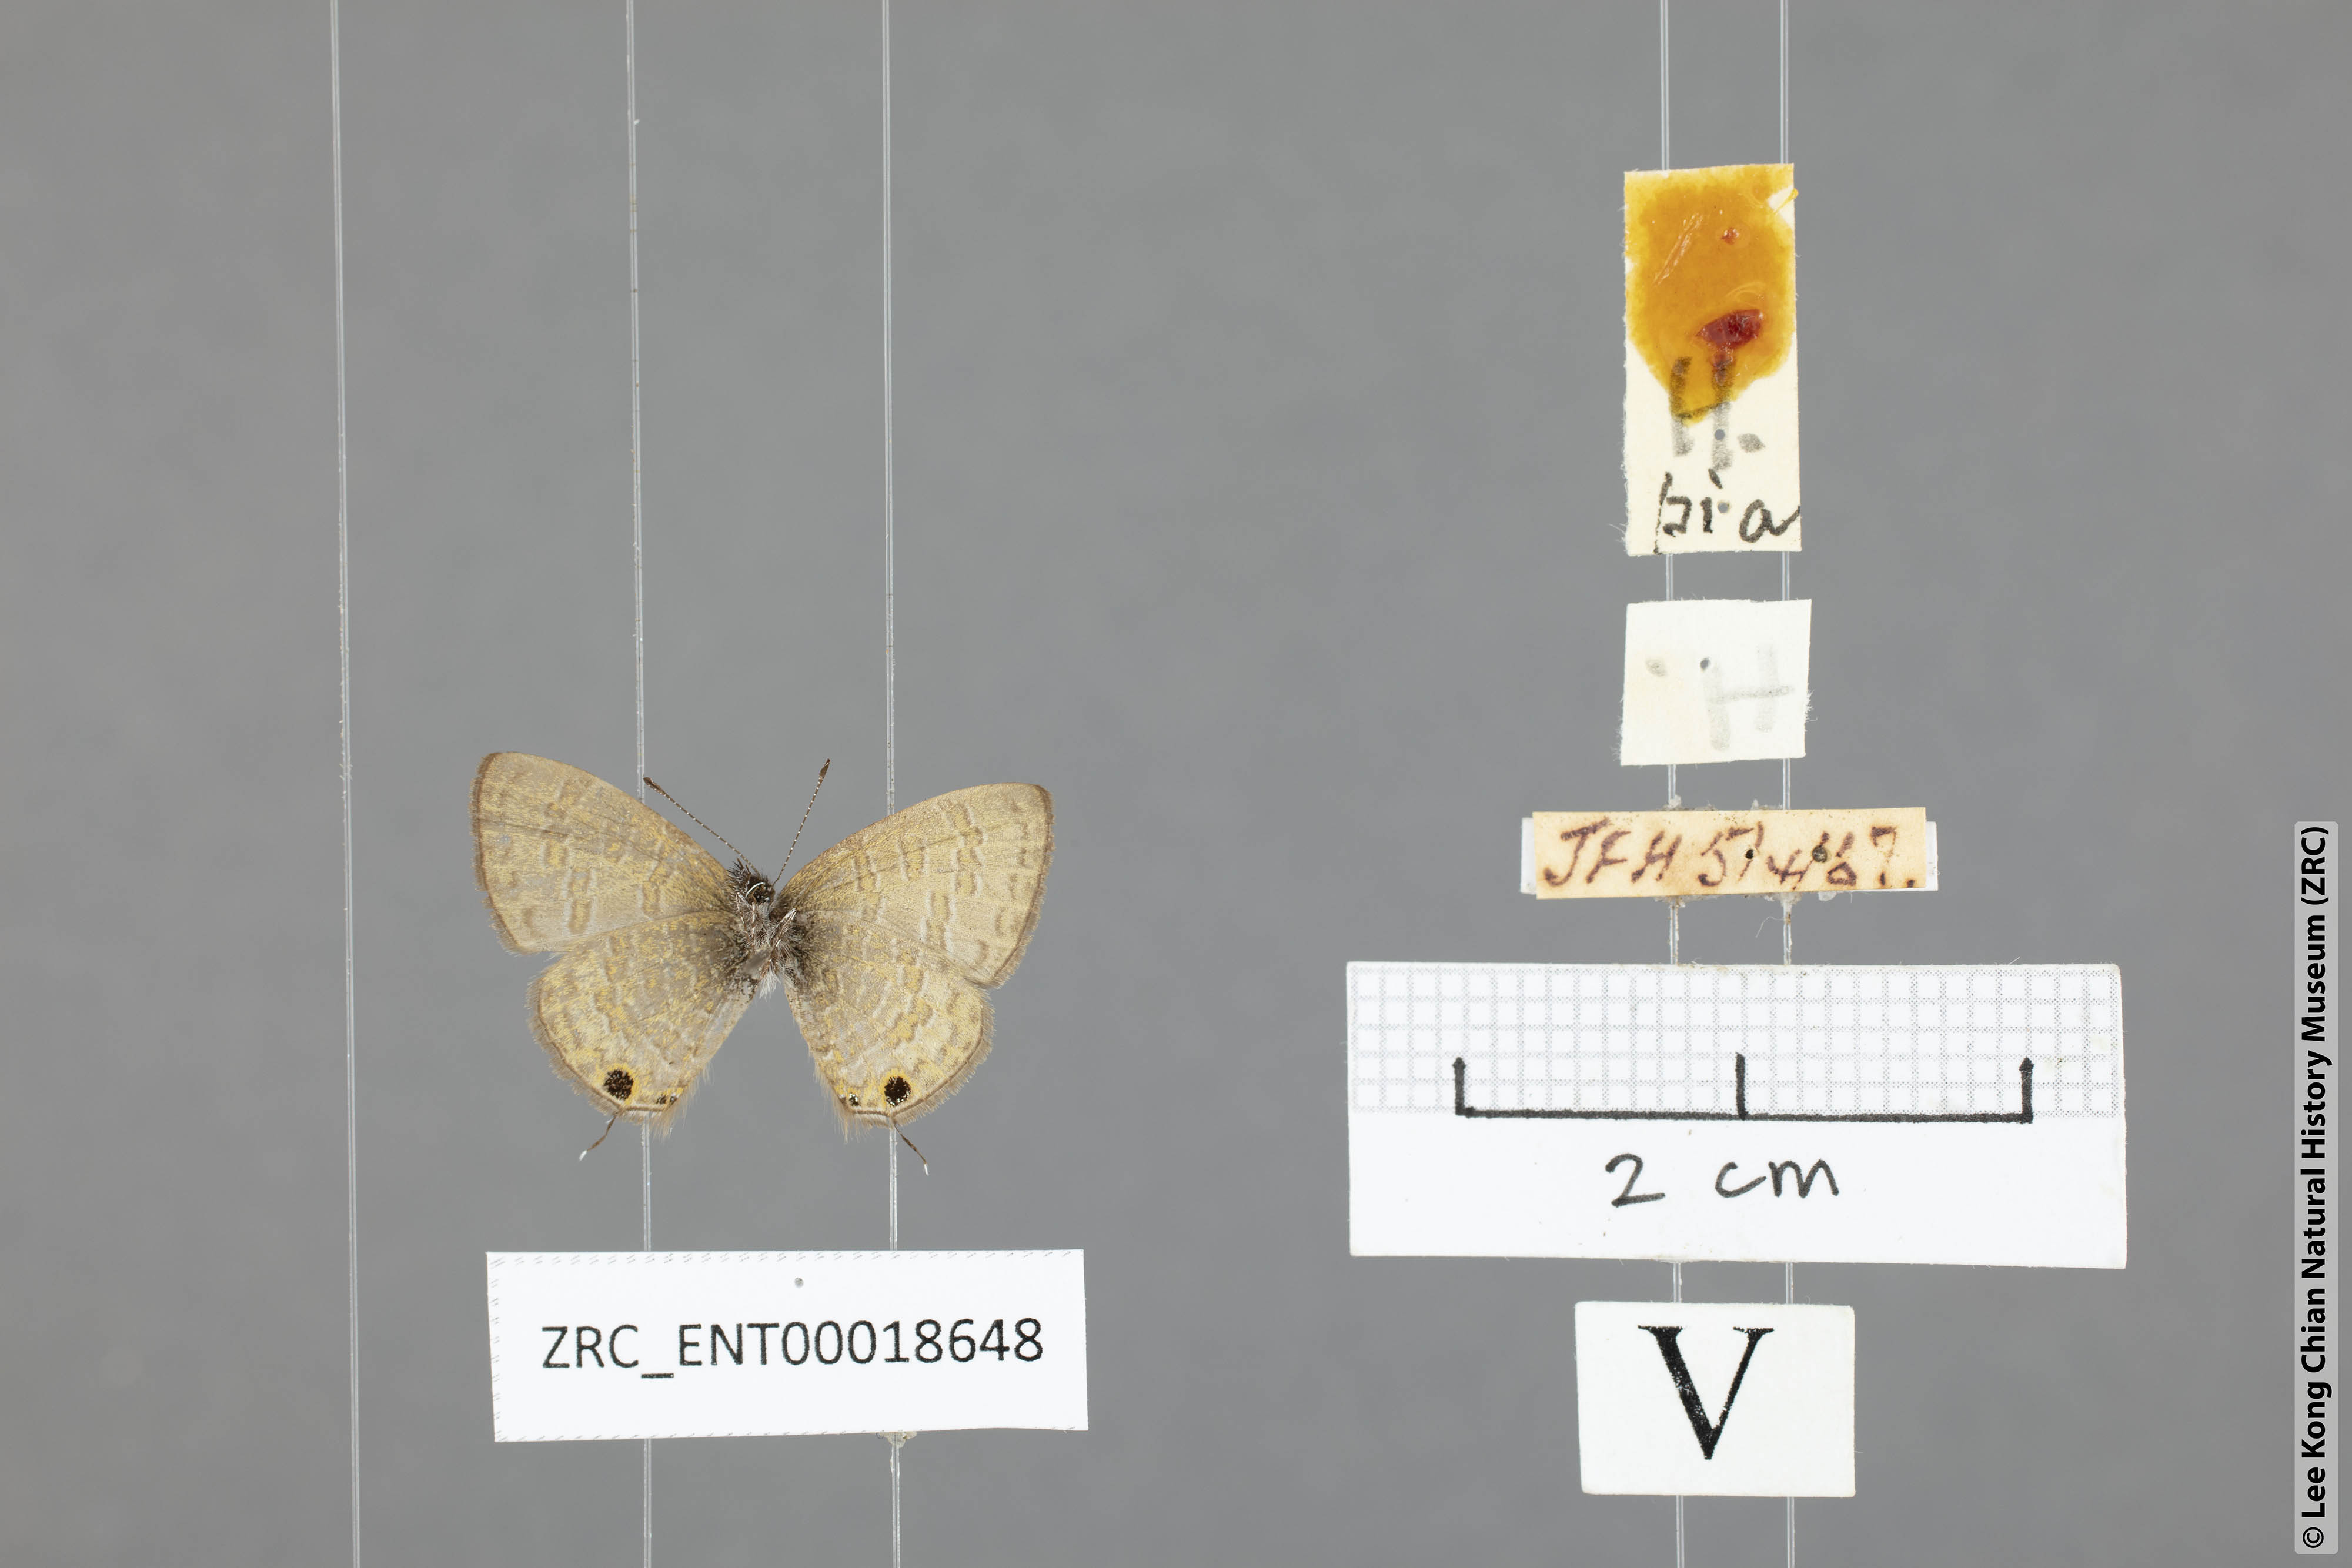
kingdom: Animalia
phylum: Arthropoda
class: Insecta
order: Lepidoptera
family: Lycaenidae
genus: Prosotas
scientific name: Prosotas pia
